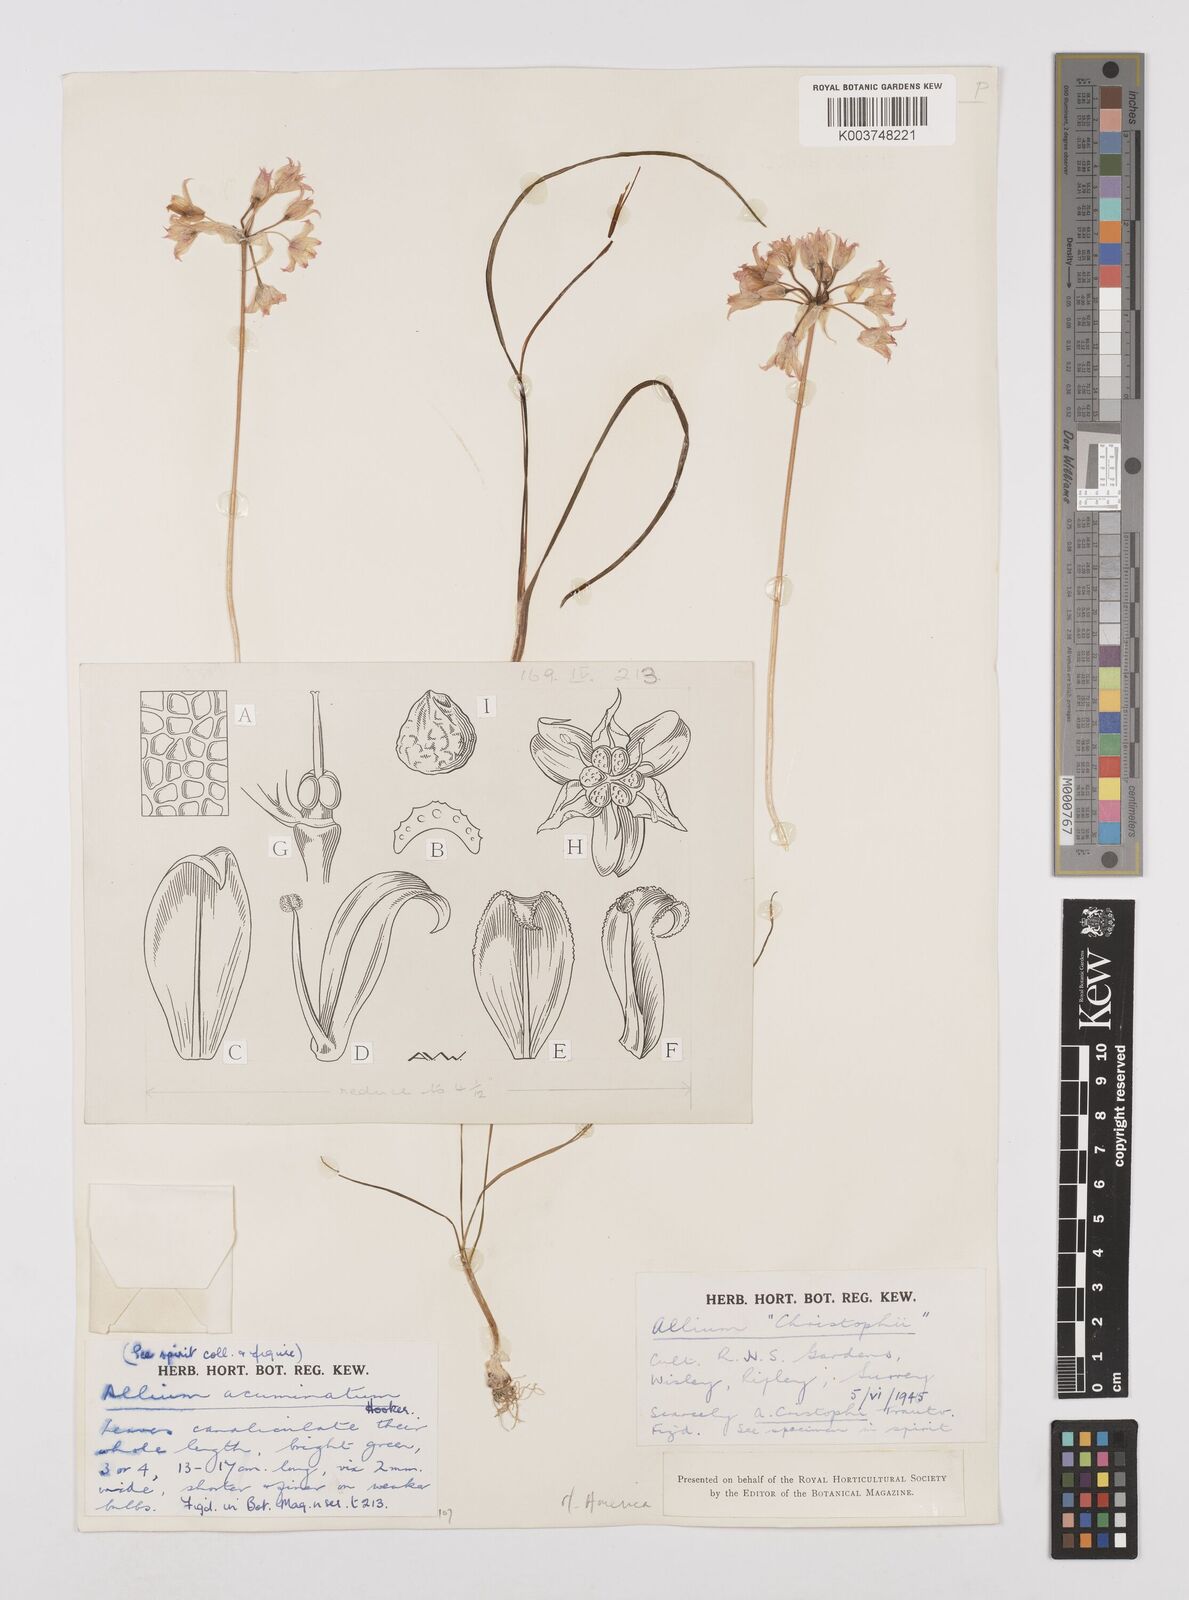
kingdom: Plantae
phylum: Tracheophyta
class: Liliopsida
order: Asparagales
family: Amaryllidaceae
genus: Allium
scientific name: Allium acuminatum
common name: Hooker's onion
